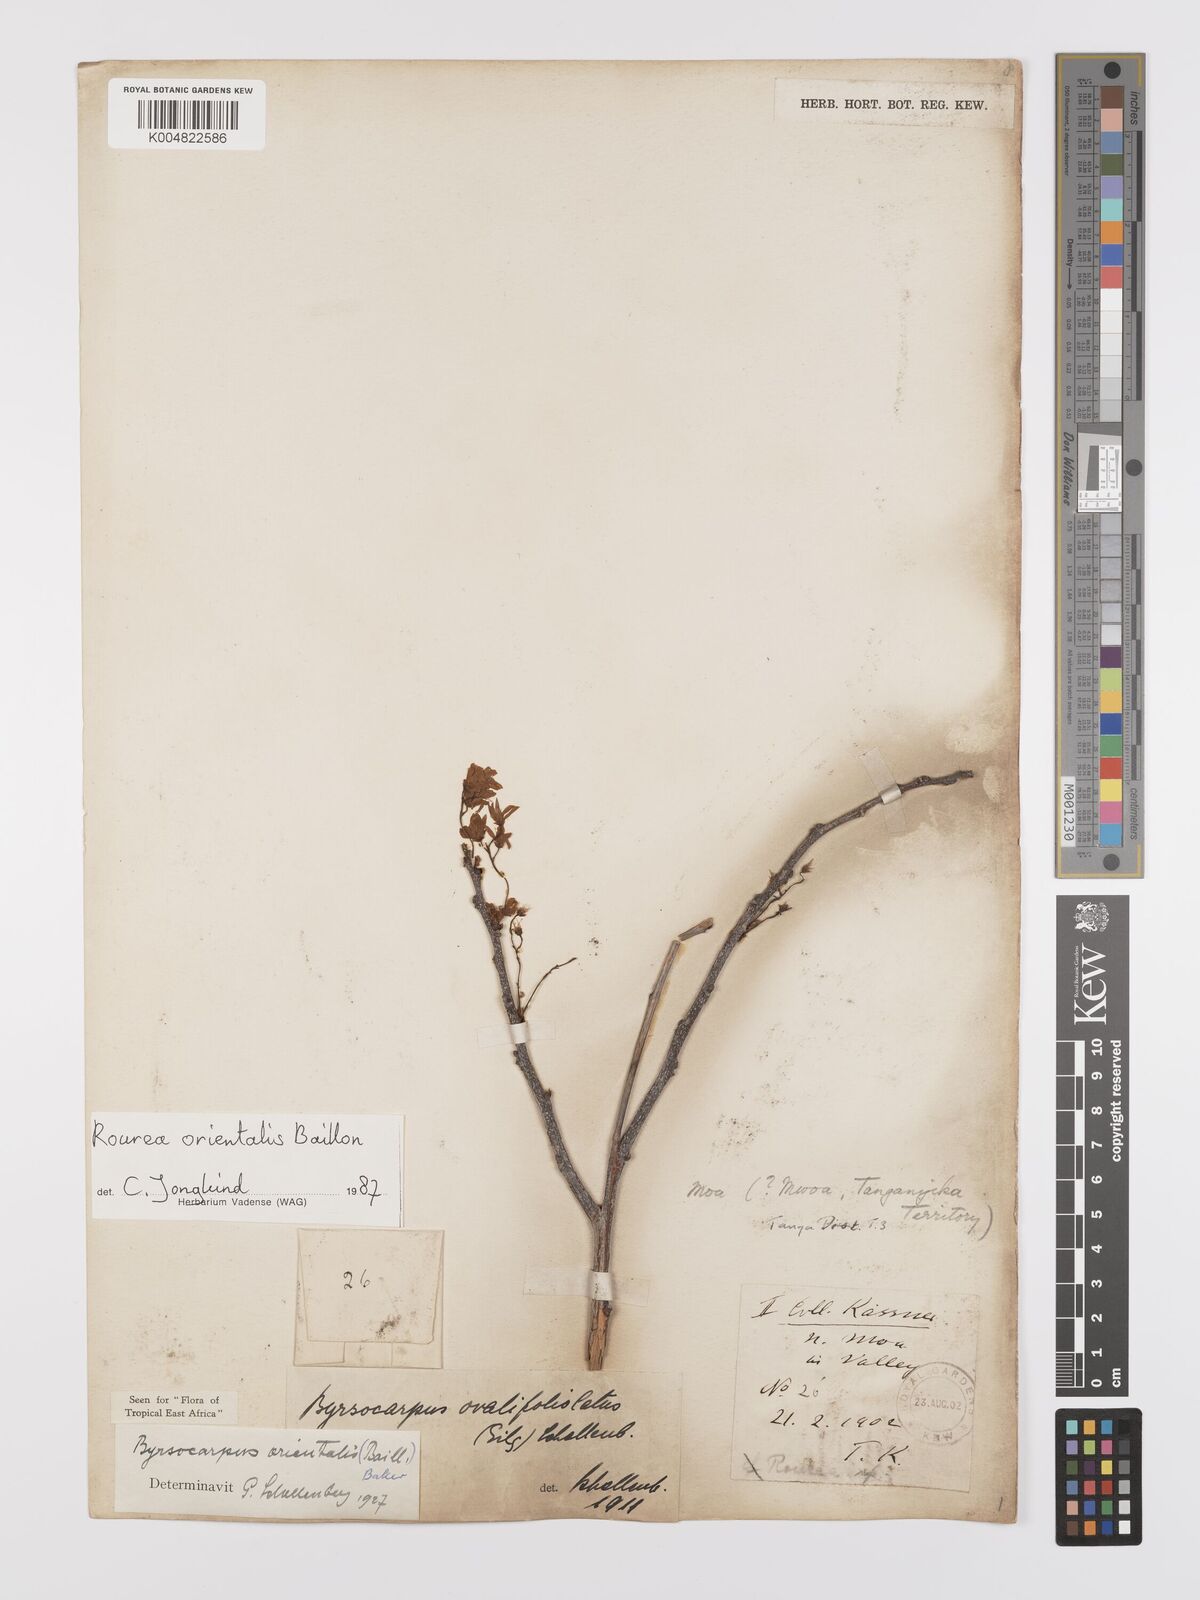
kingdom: Plantae
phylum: Tracheophyta
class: Magnoliopsida
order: Oxalidales
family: Connaraceae
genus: Rourea
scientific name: Rourea orientalis
